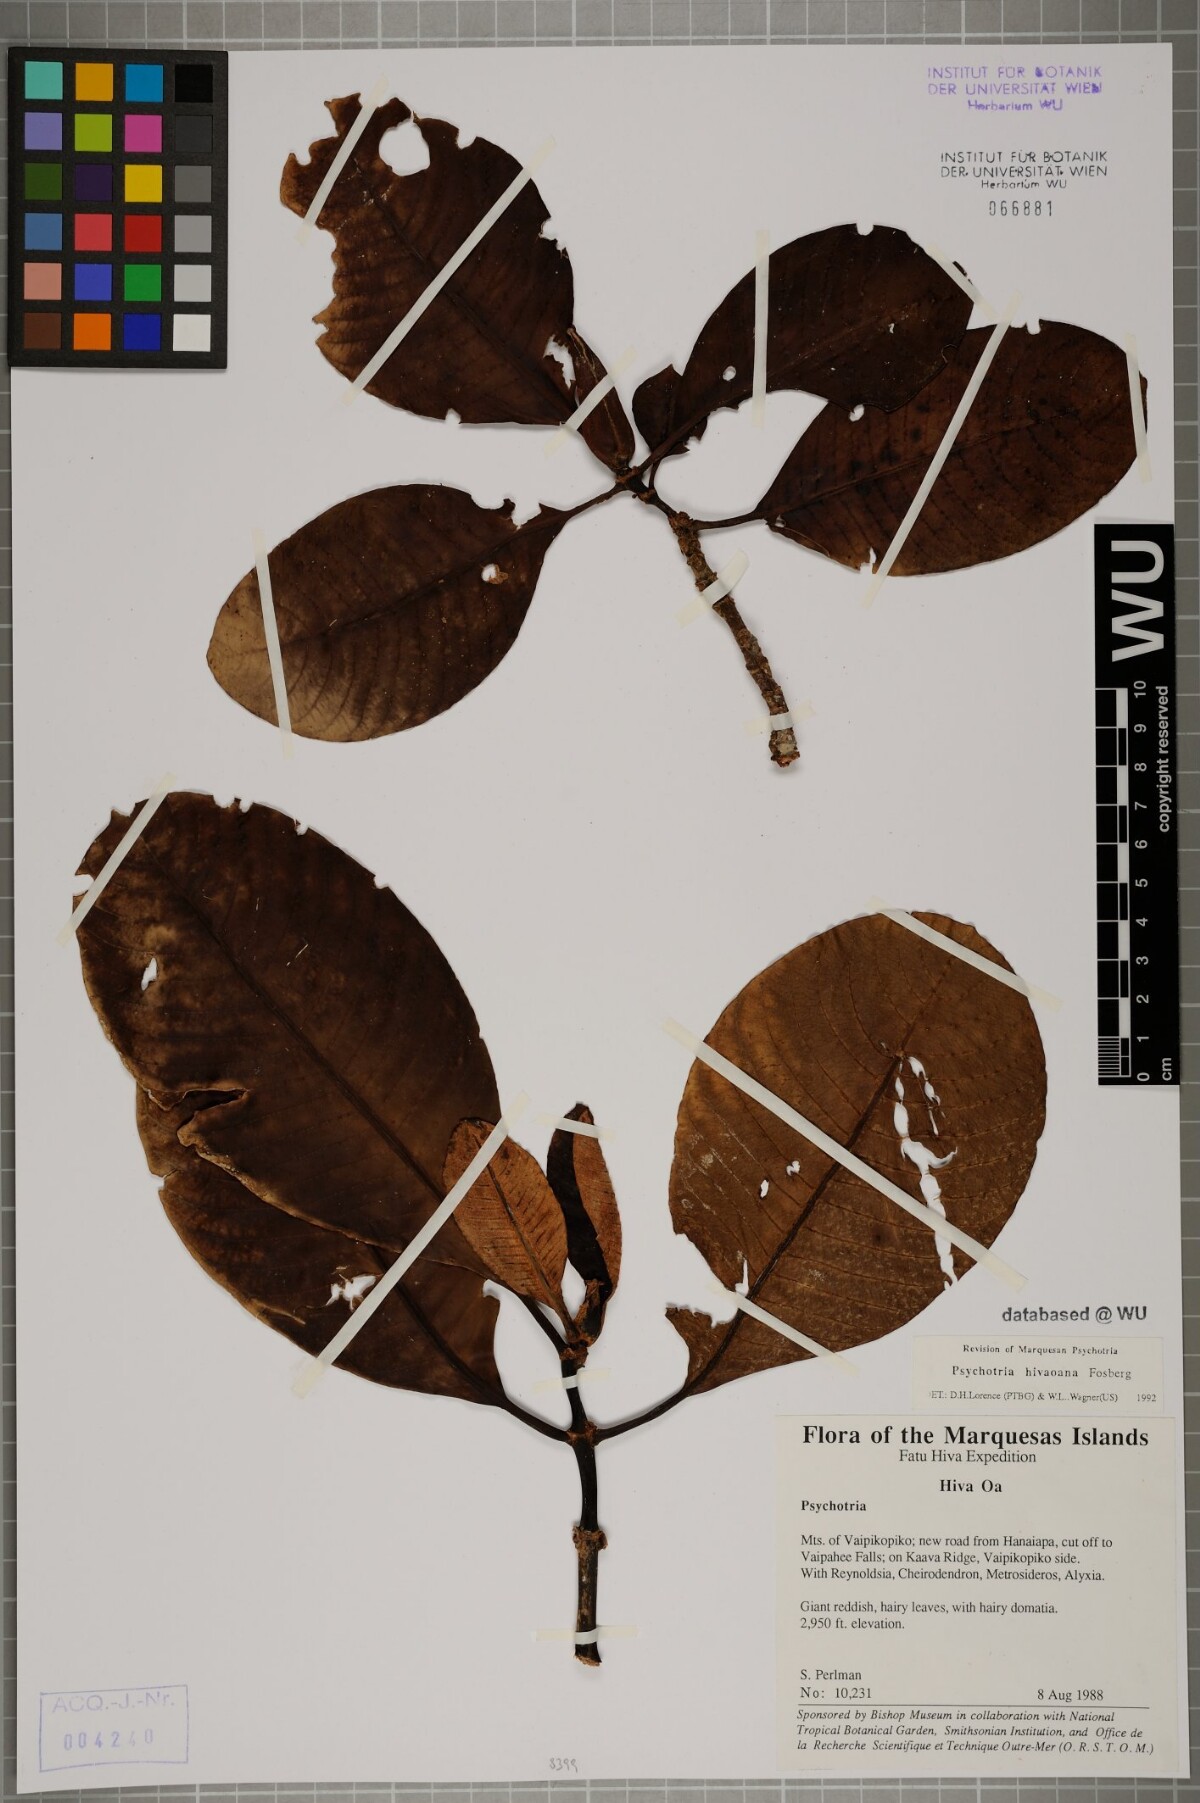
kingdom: Plantae
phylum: Tracheophyta
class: Magnoliopsida
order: Gentianales
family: Rubiaceae
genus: Psychotria
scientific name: Psychotria hivaoana
